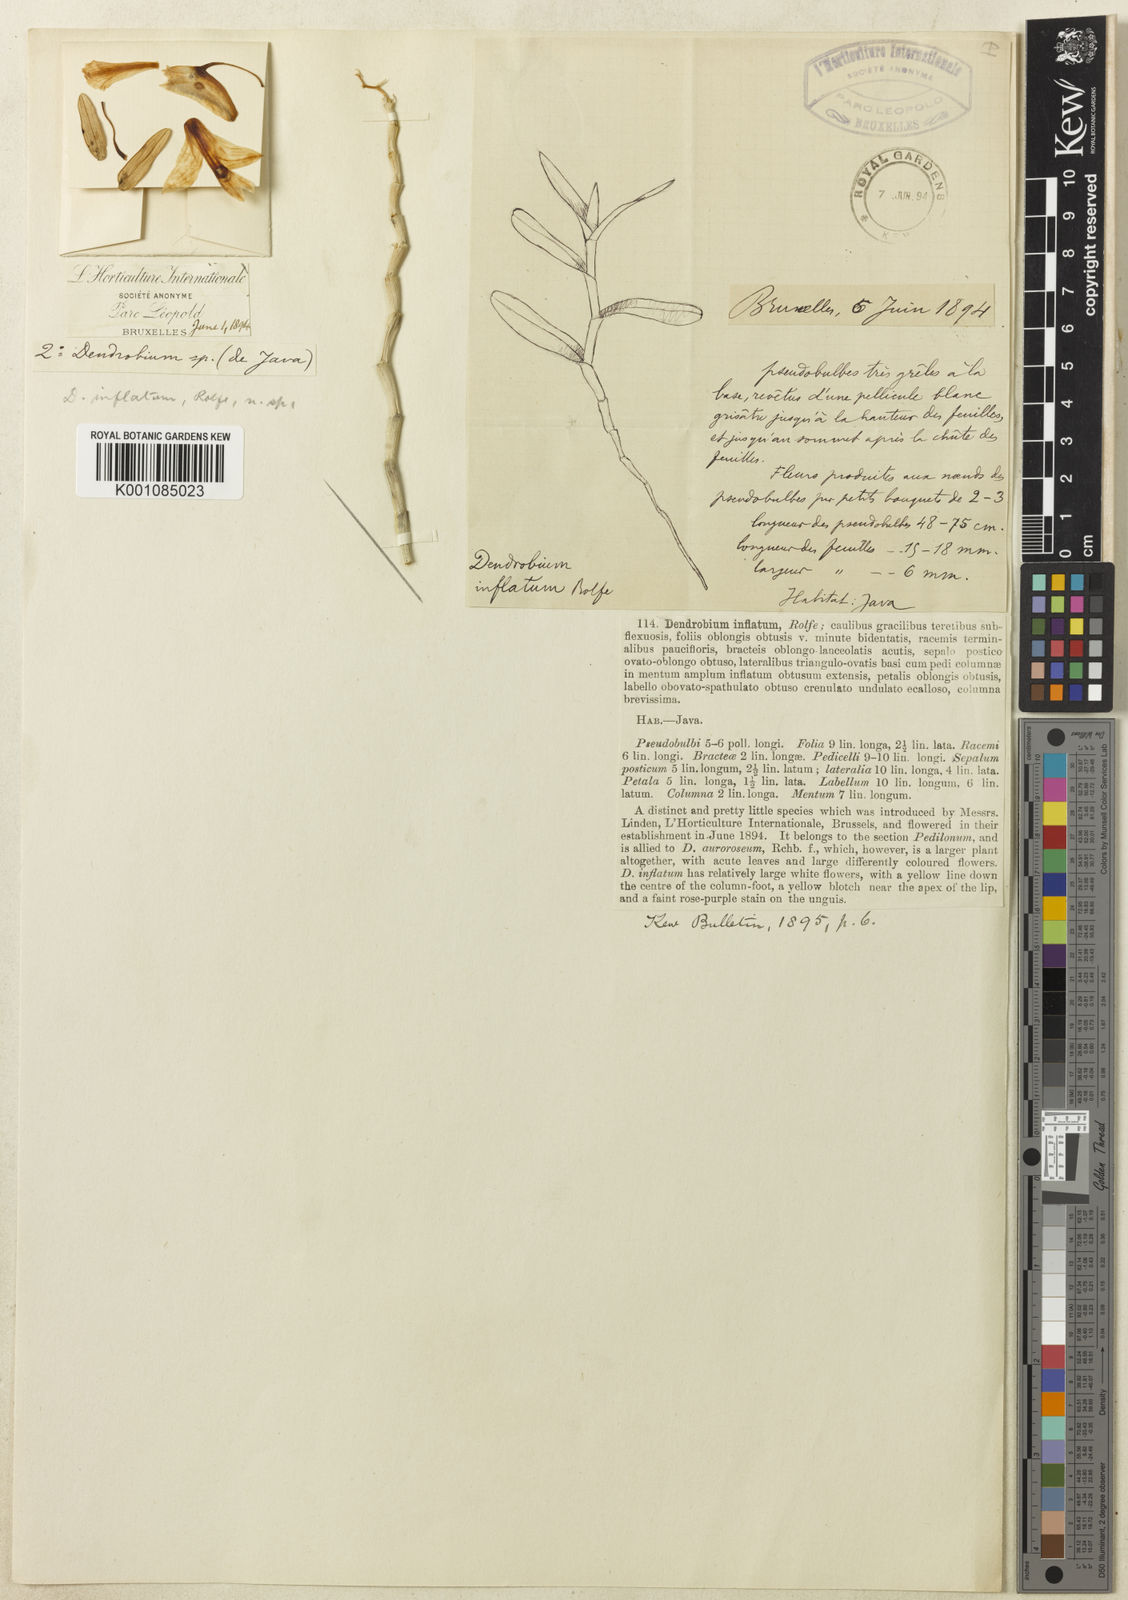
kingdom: Plantae
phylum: Tracheophyta
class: Liliopsida
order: Asparagales
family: Orchidaceae
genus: Dendrobium
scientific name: Dendrobium inflatum
